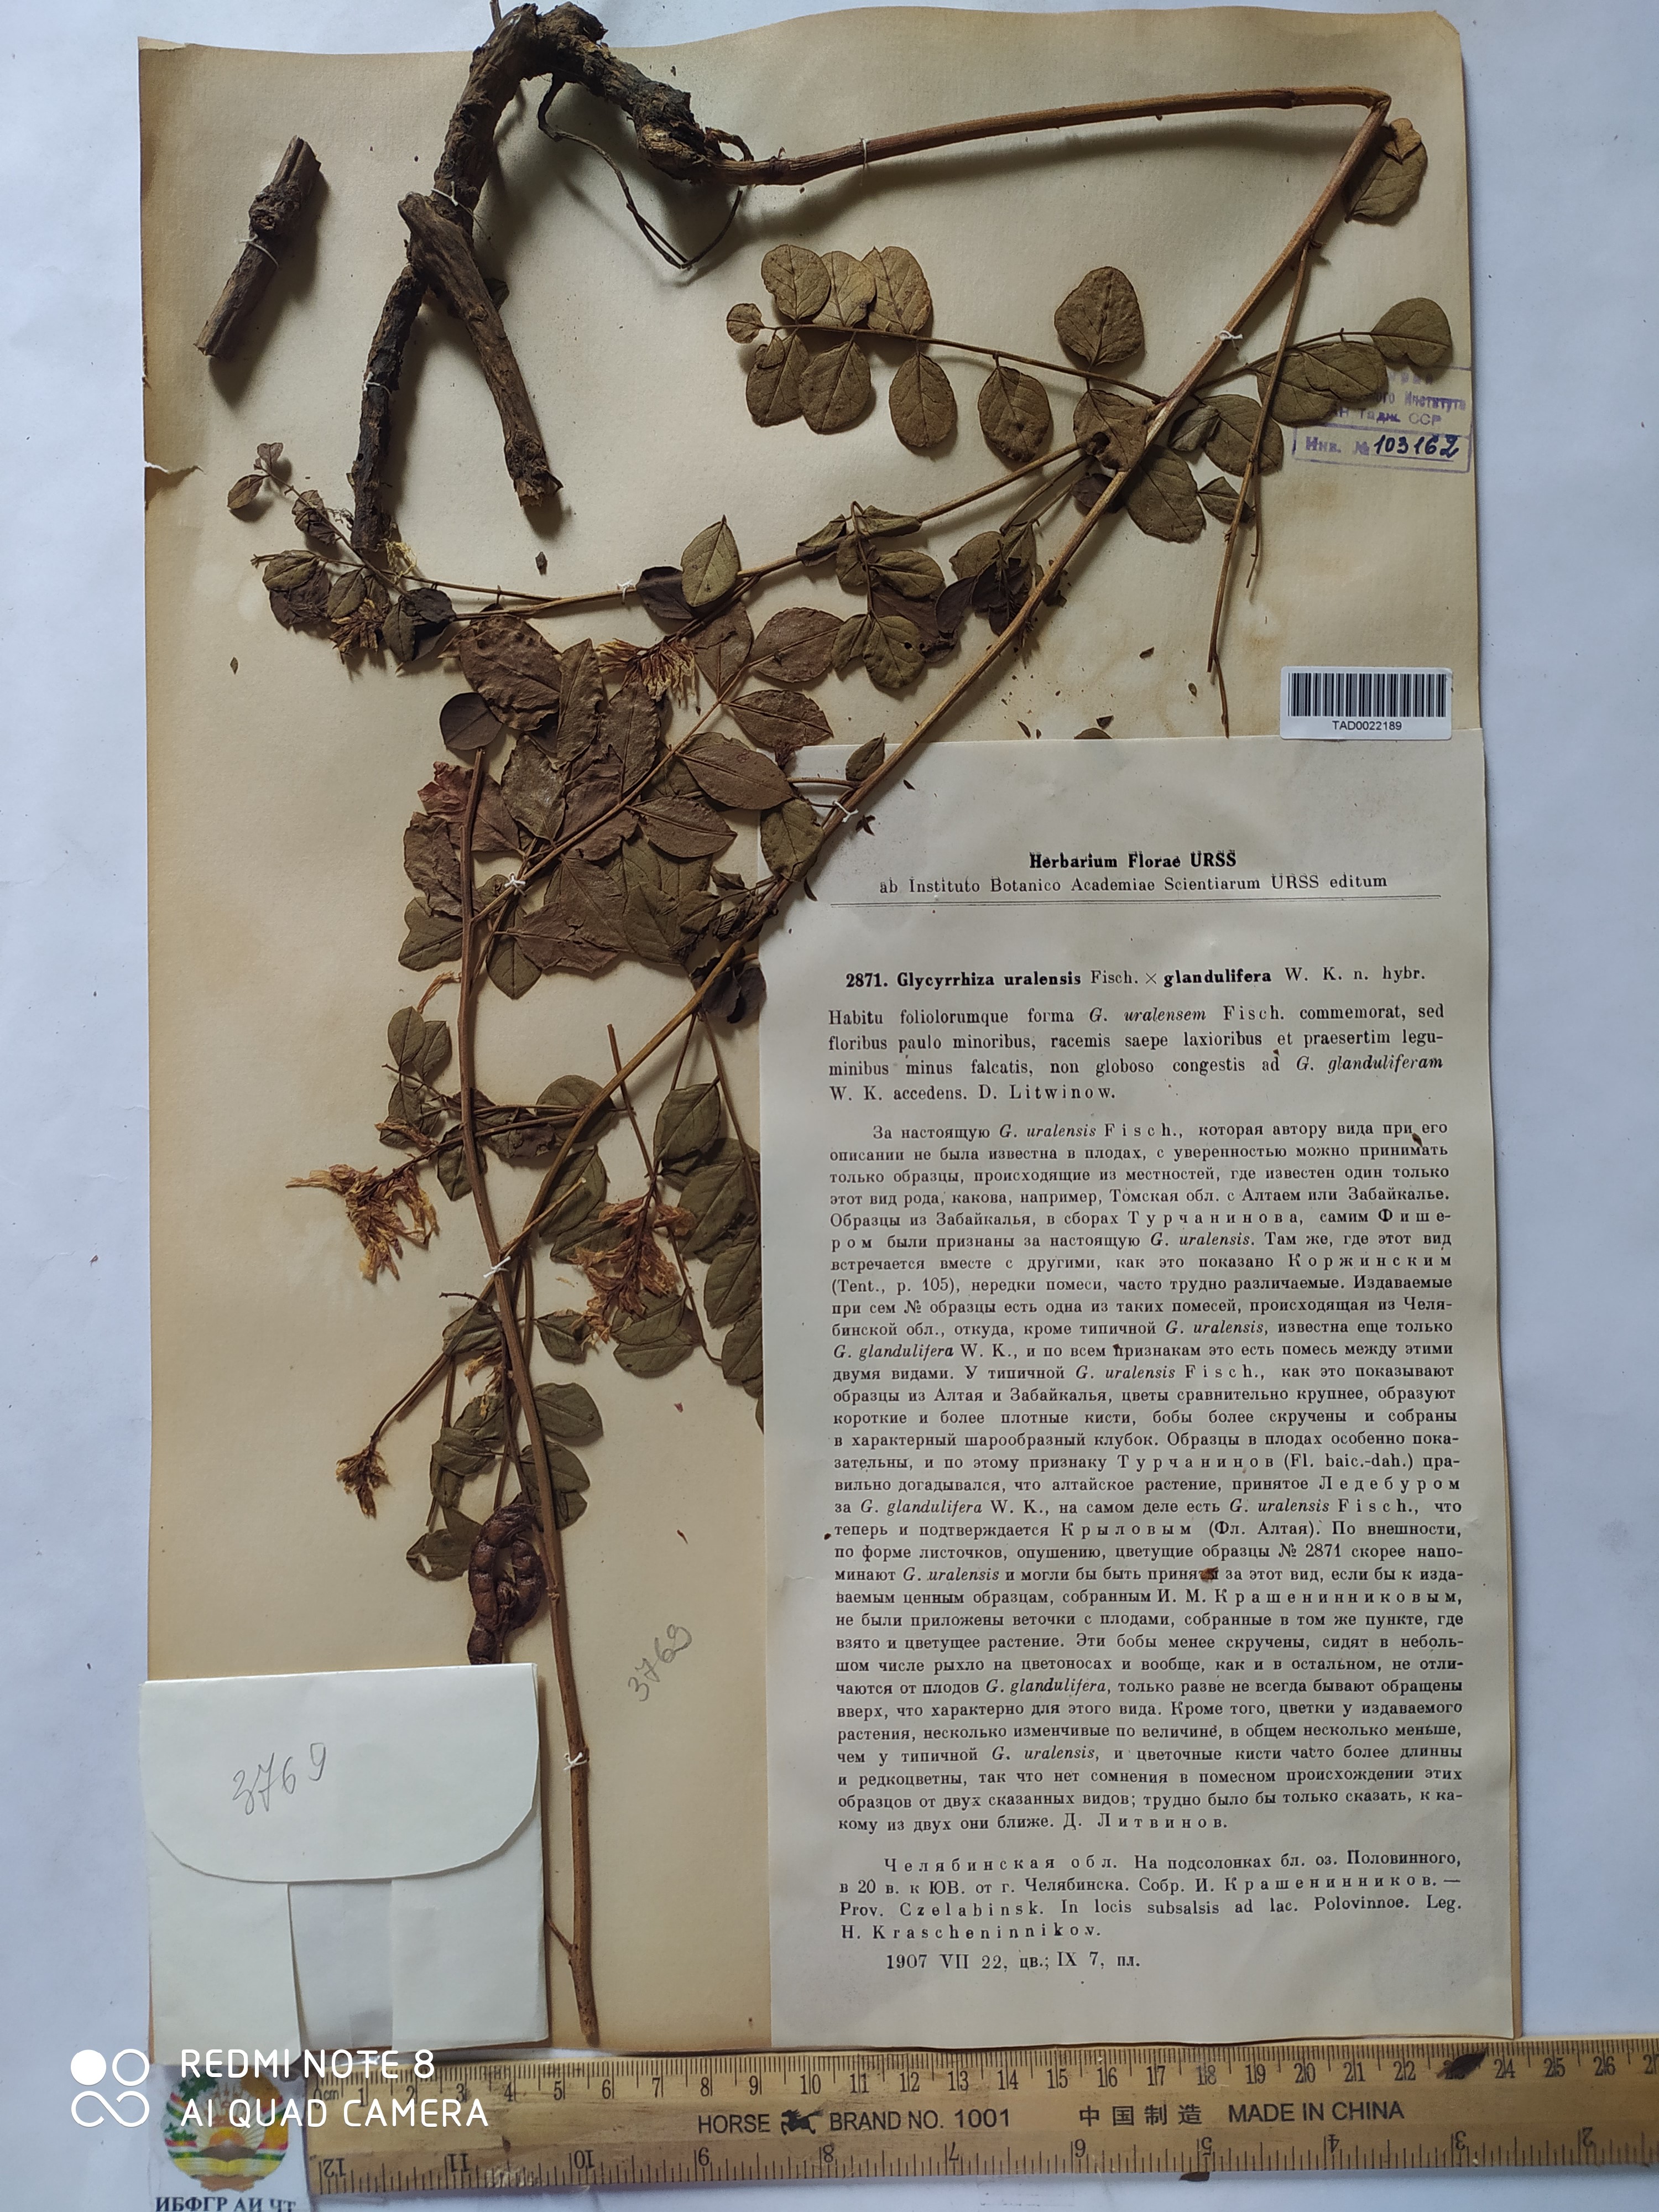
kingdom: Plantae
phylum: Tracheophyta
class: Magnoliopsida
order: Fabales
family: Fabaceae
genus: Glycyrrhiza
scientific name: Glycyrrhiza uralensis
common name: Chinese licorice
